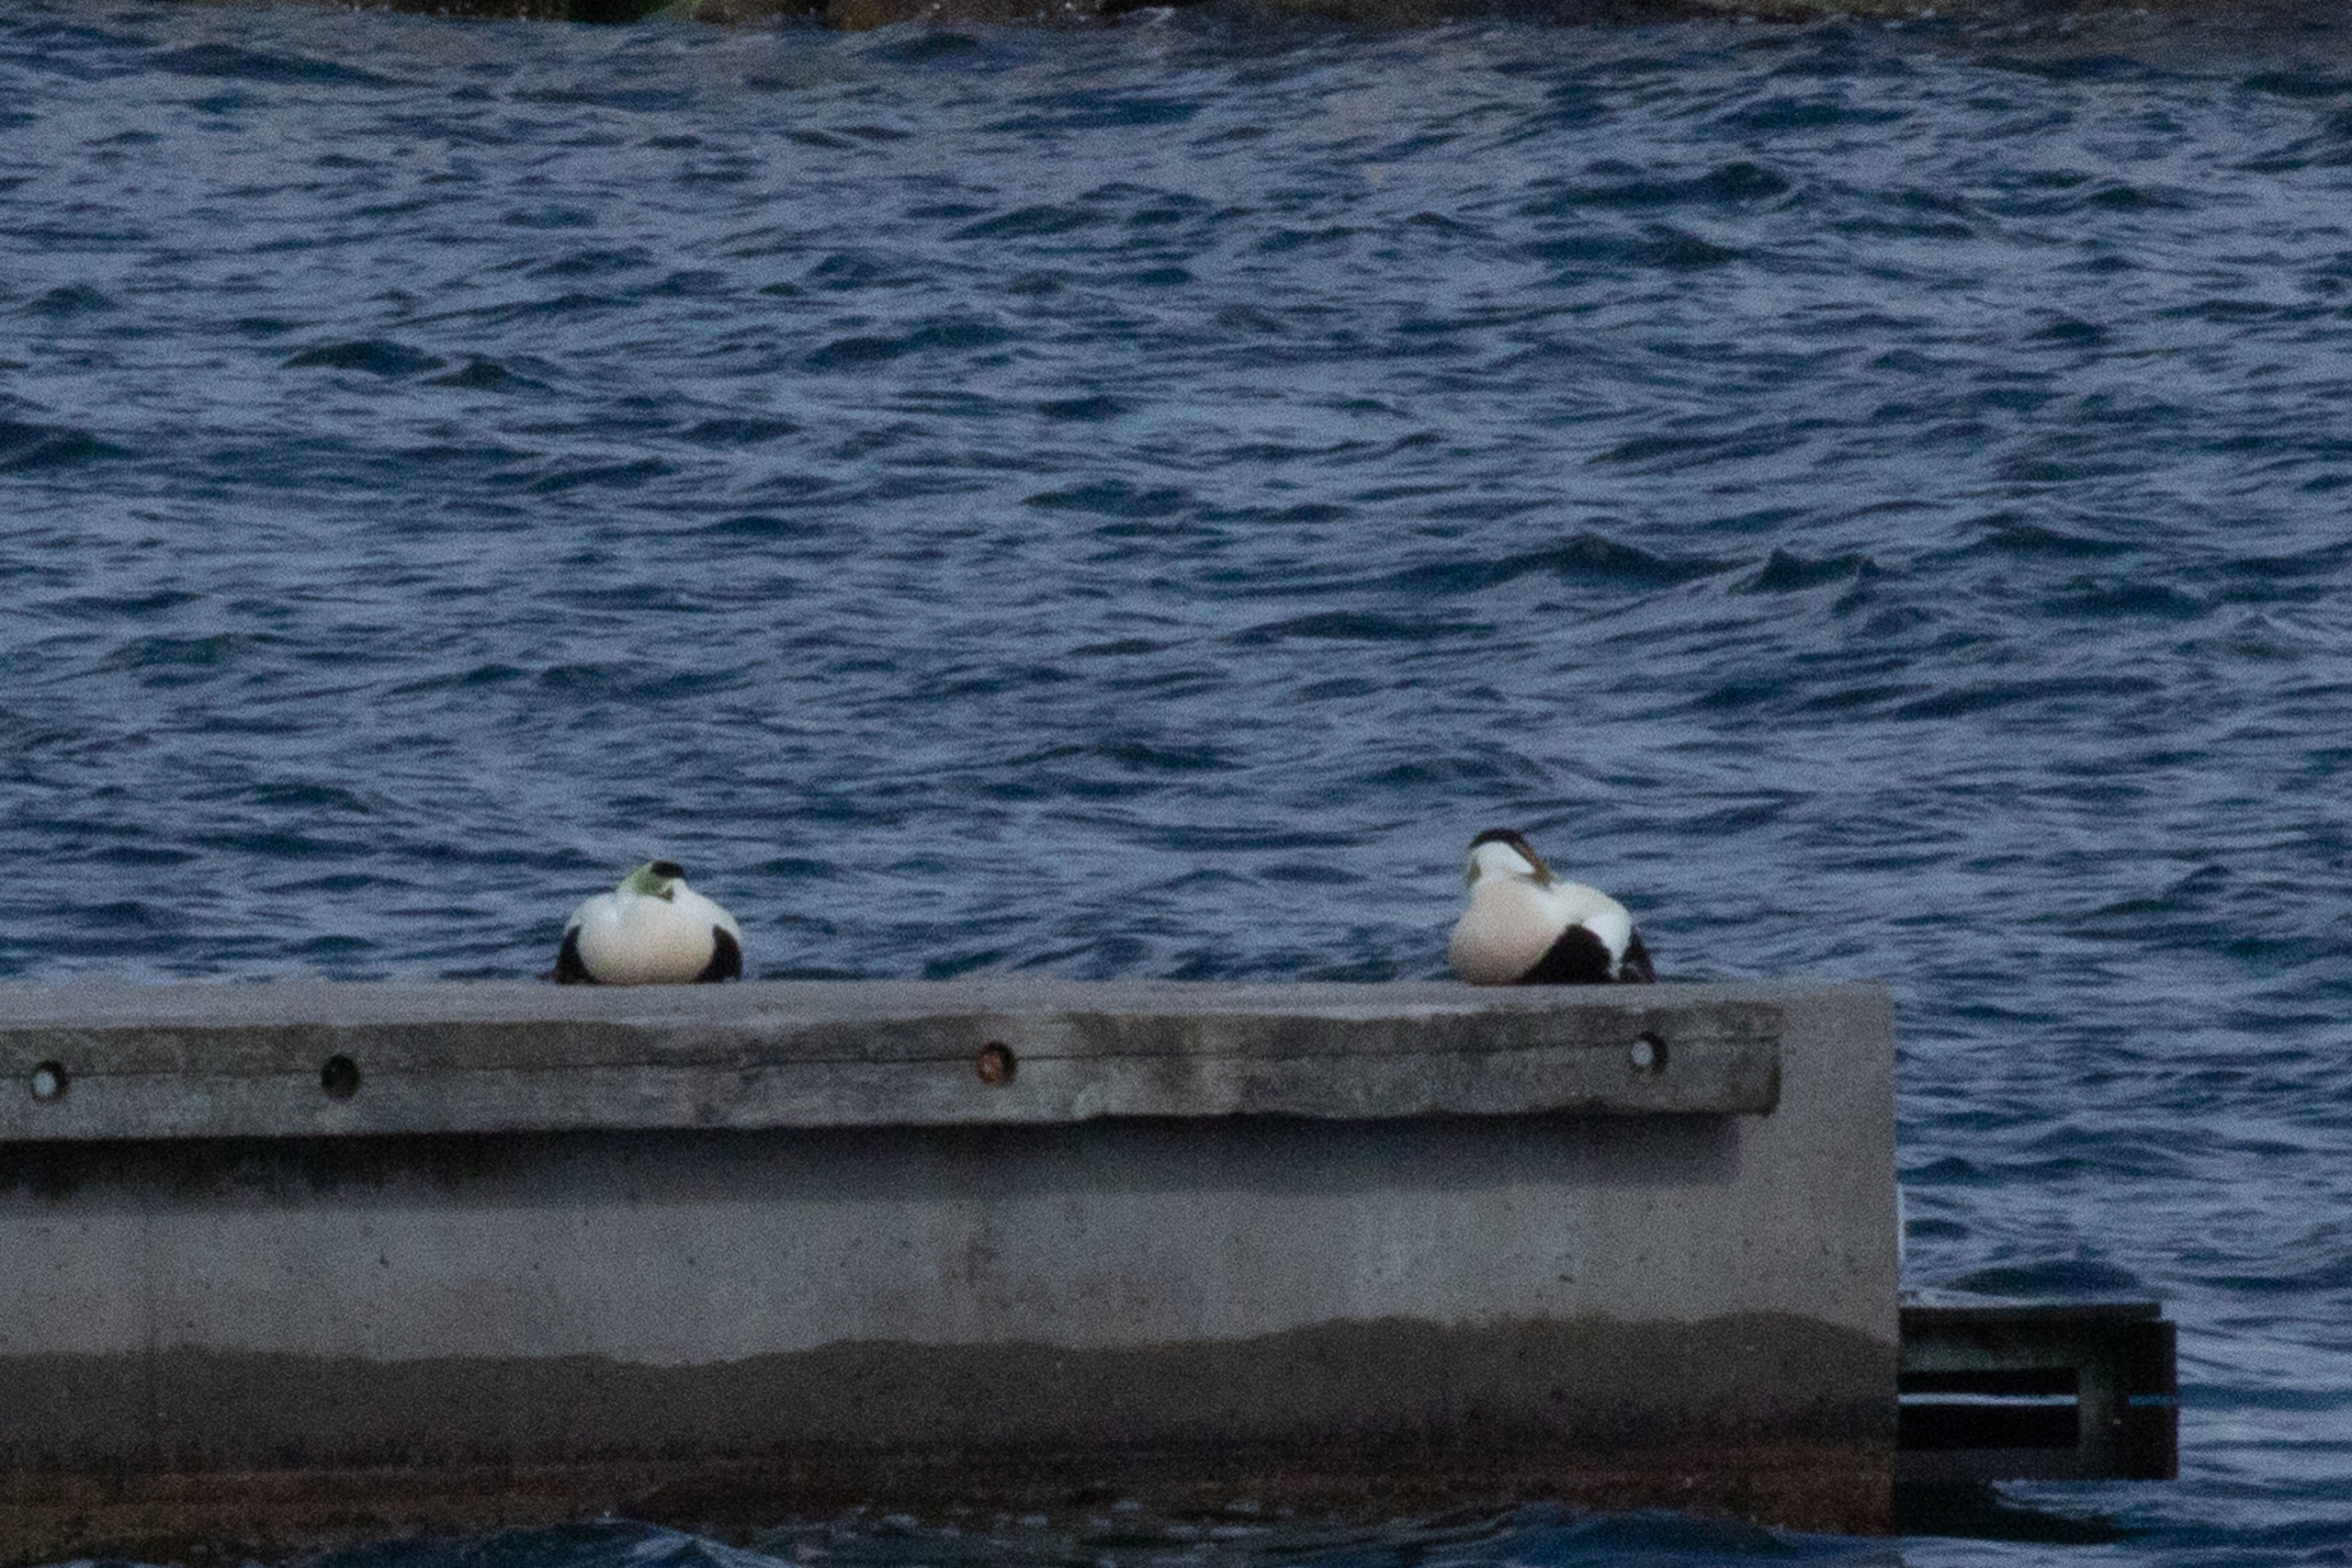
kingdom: Animalia
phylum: Chordata
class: Aves
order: Anseriformes
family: Anatidae
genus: Somateria
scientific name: Somateria mollissima
